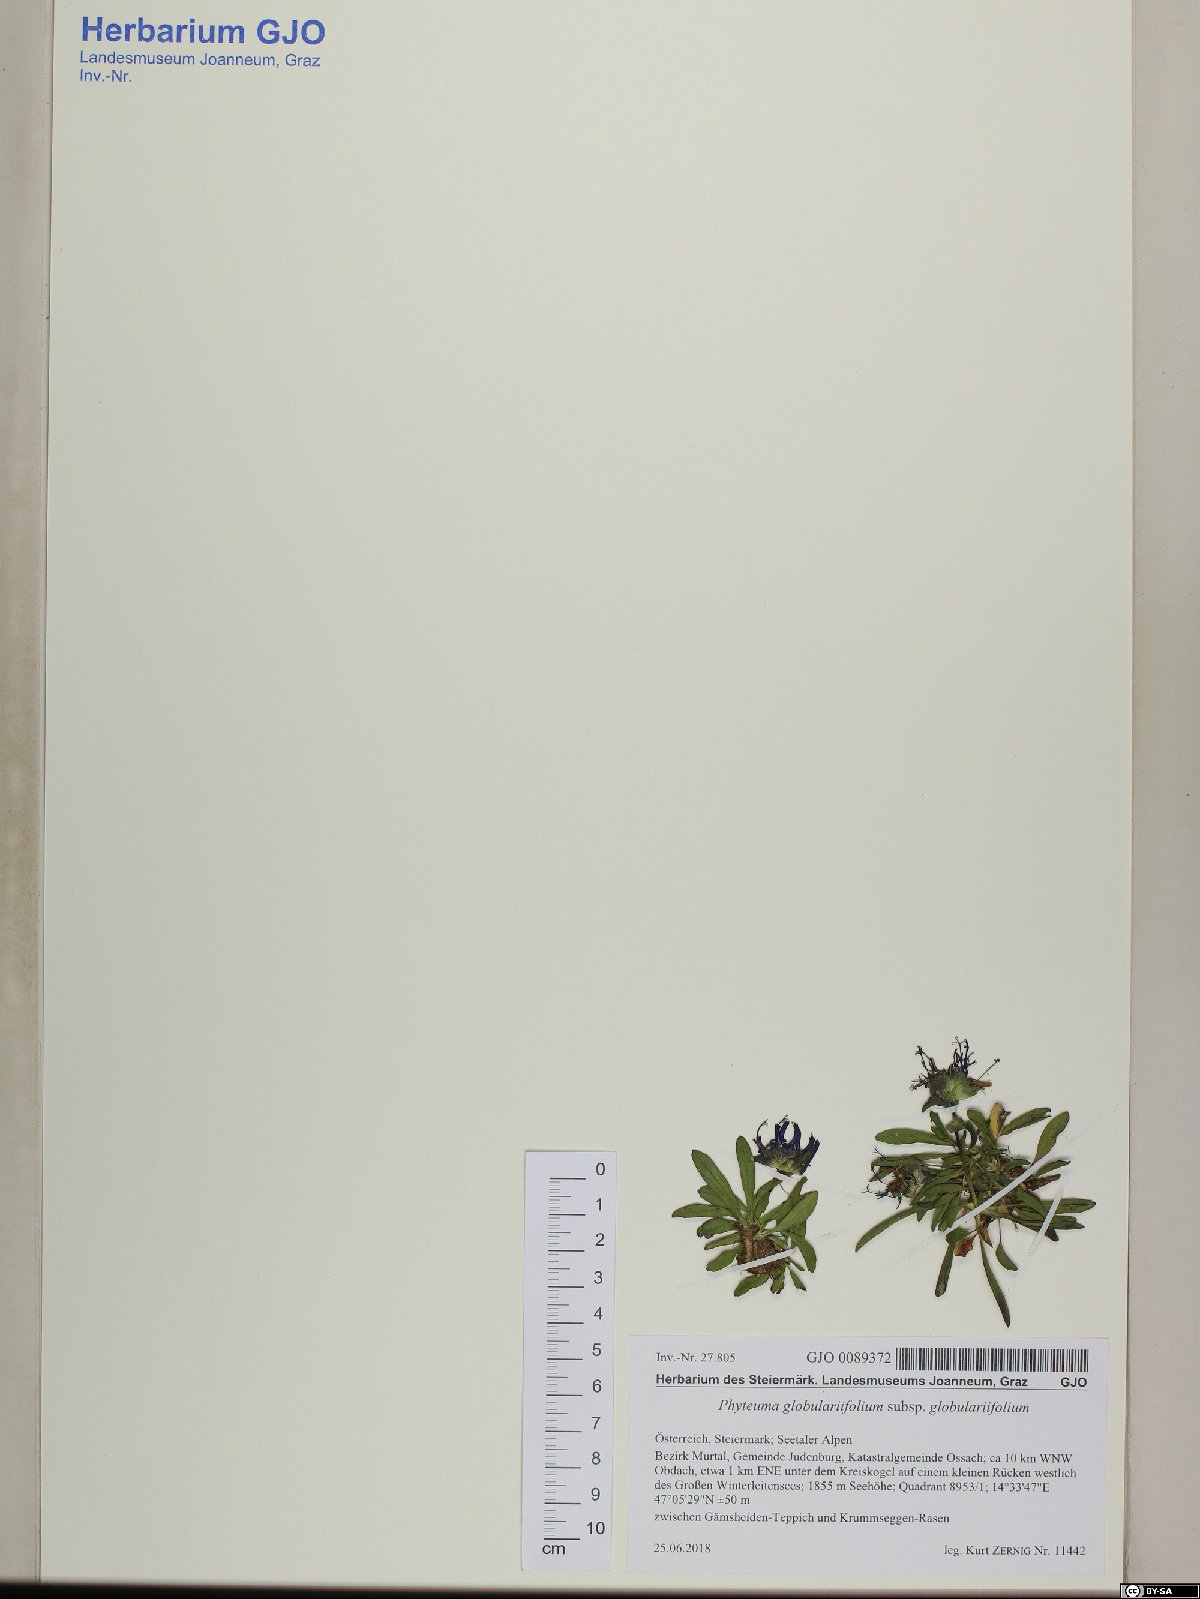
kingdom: Plantae
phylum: Tracheophyta
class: Magnoliopsida
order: Asterales
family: Campanulaceae
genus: Phyteuma
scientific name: Phyteuma globulariifolium
